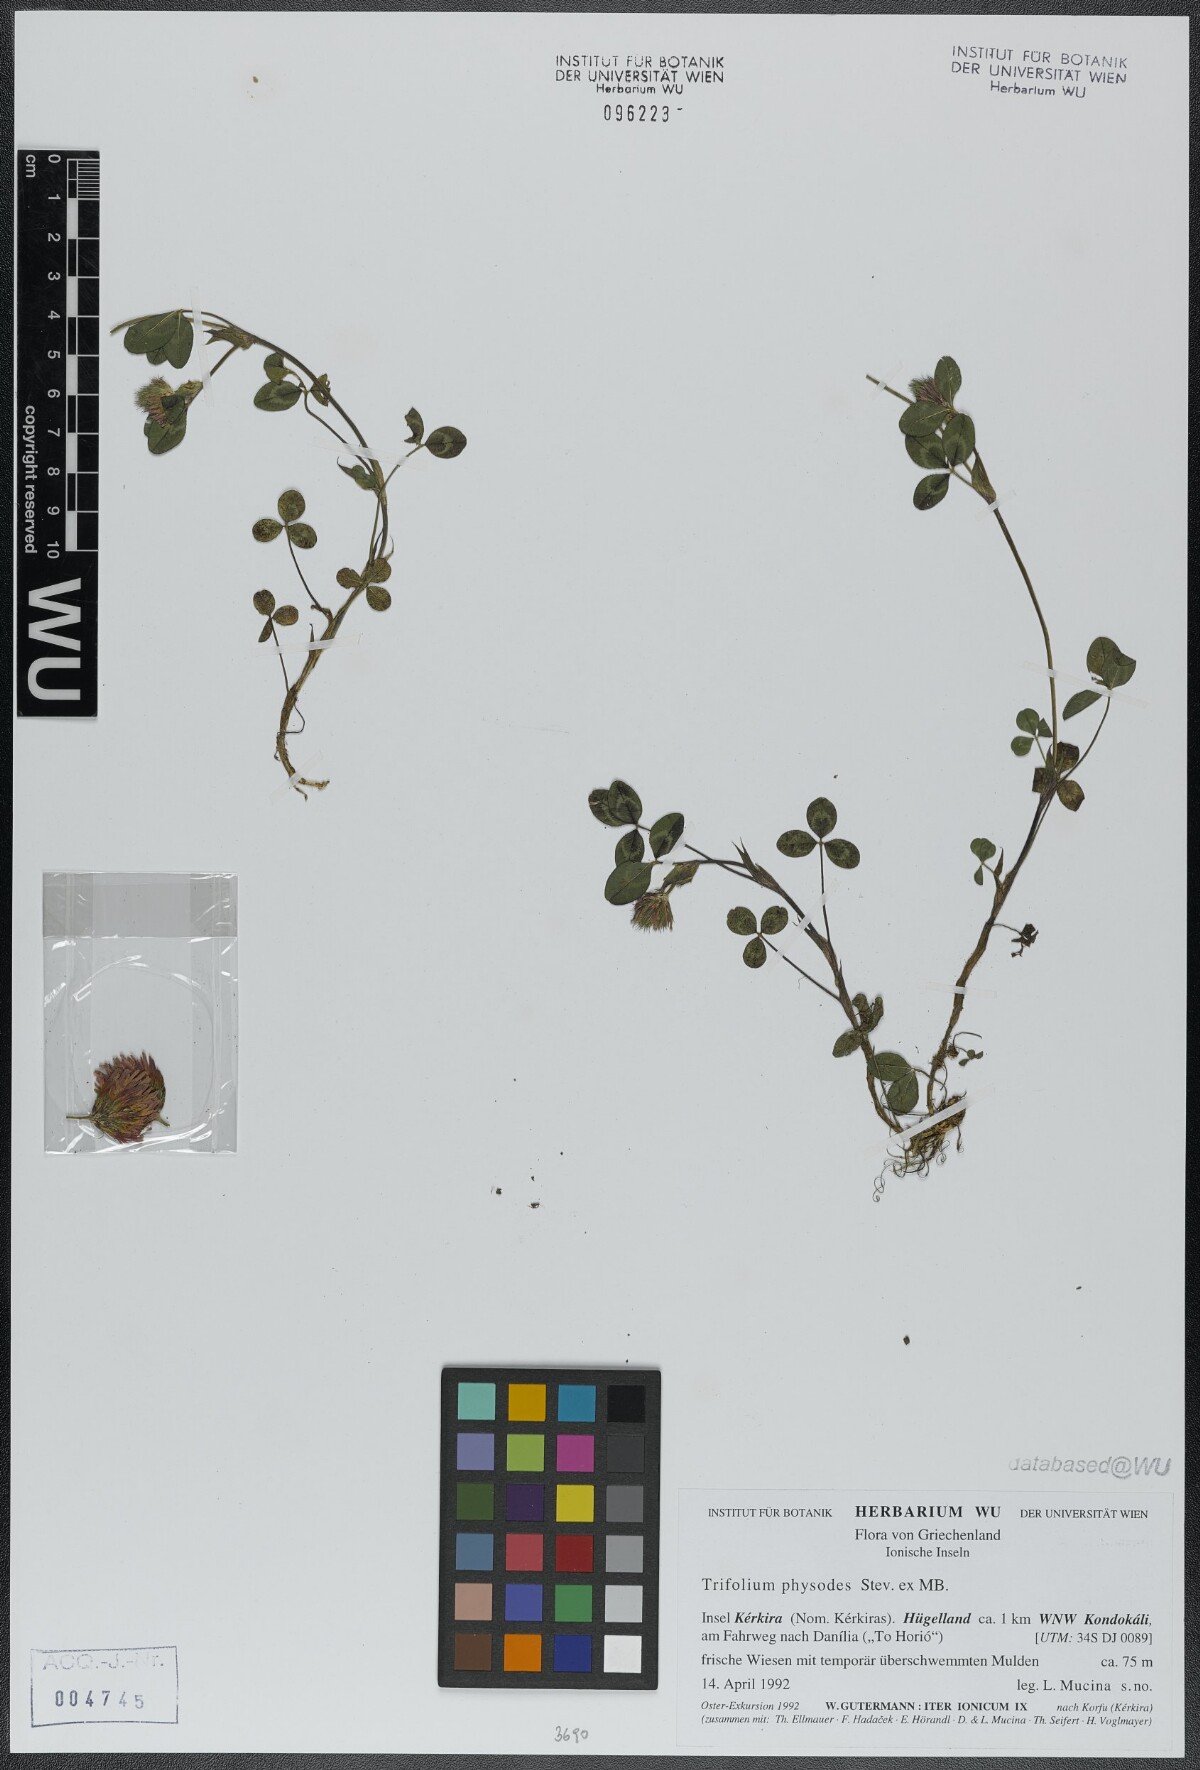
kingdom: Plantae
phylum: Tracheophyta
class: Magnoliopsida
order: Fabales
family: Fabaceae
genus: Trifolium
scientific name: Trifolium physodes
